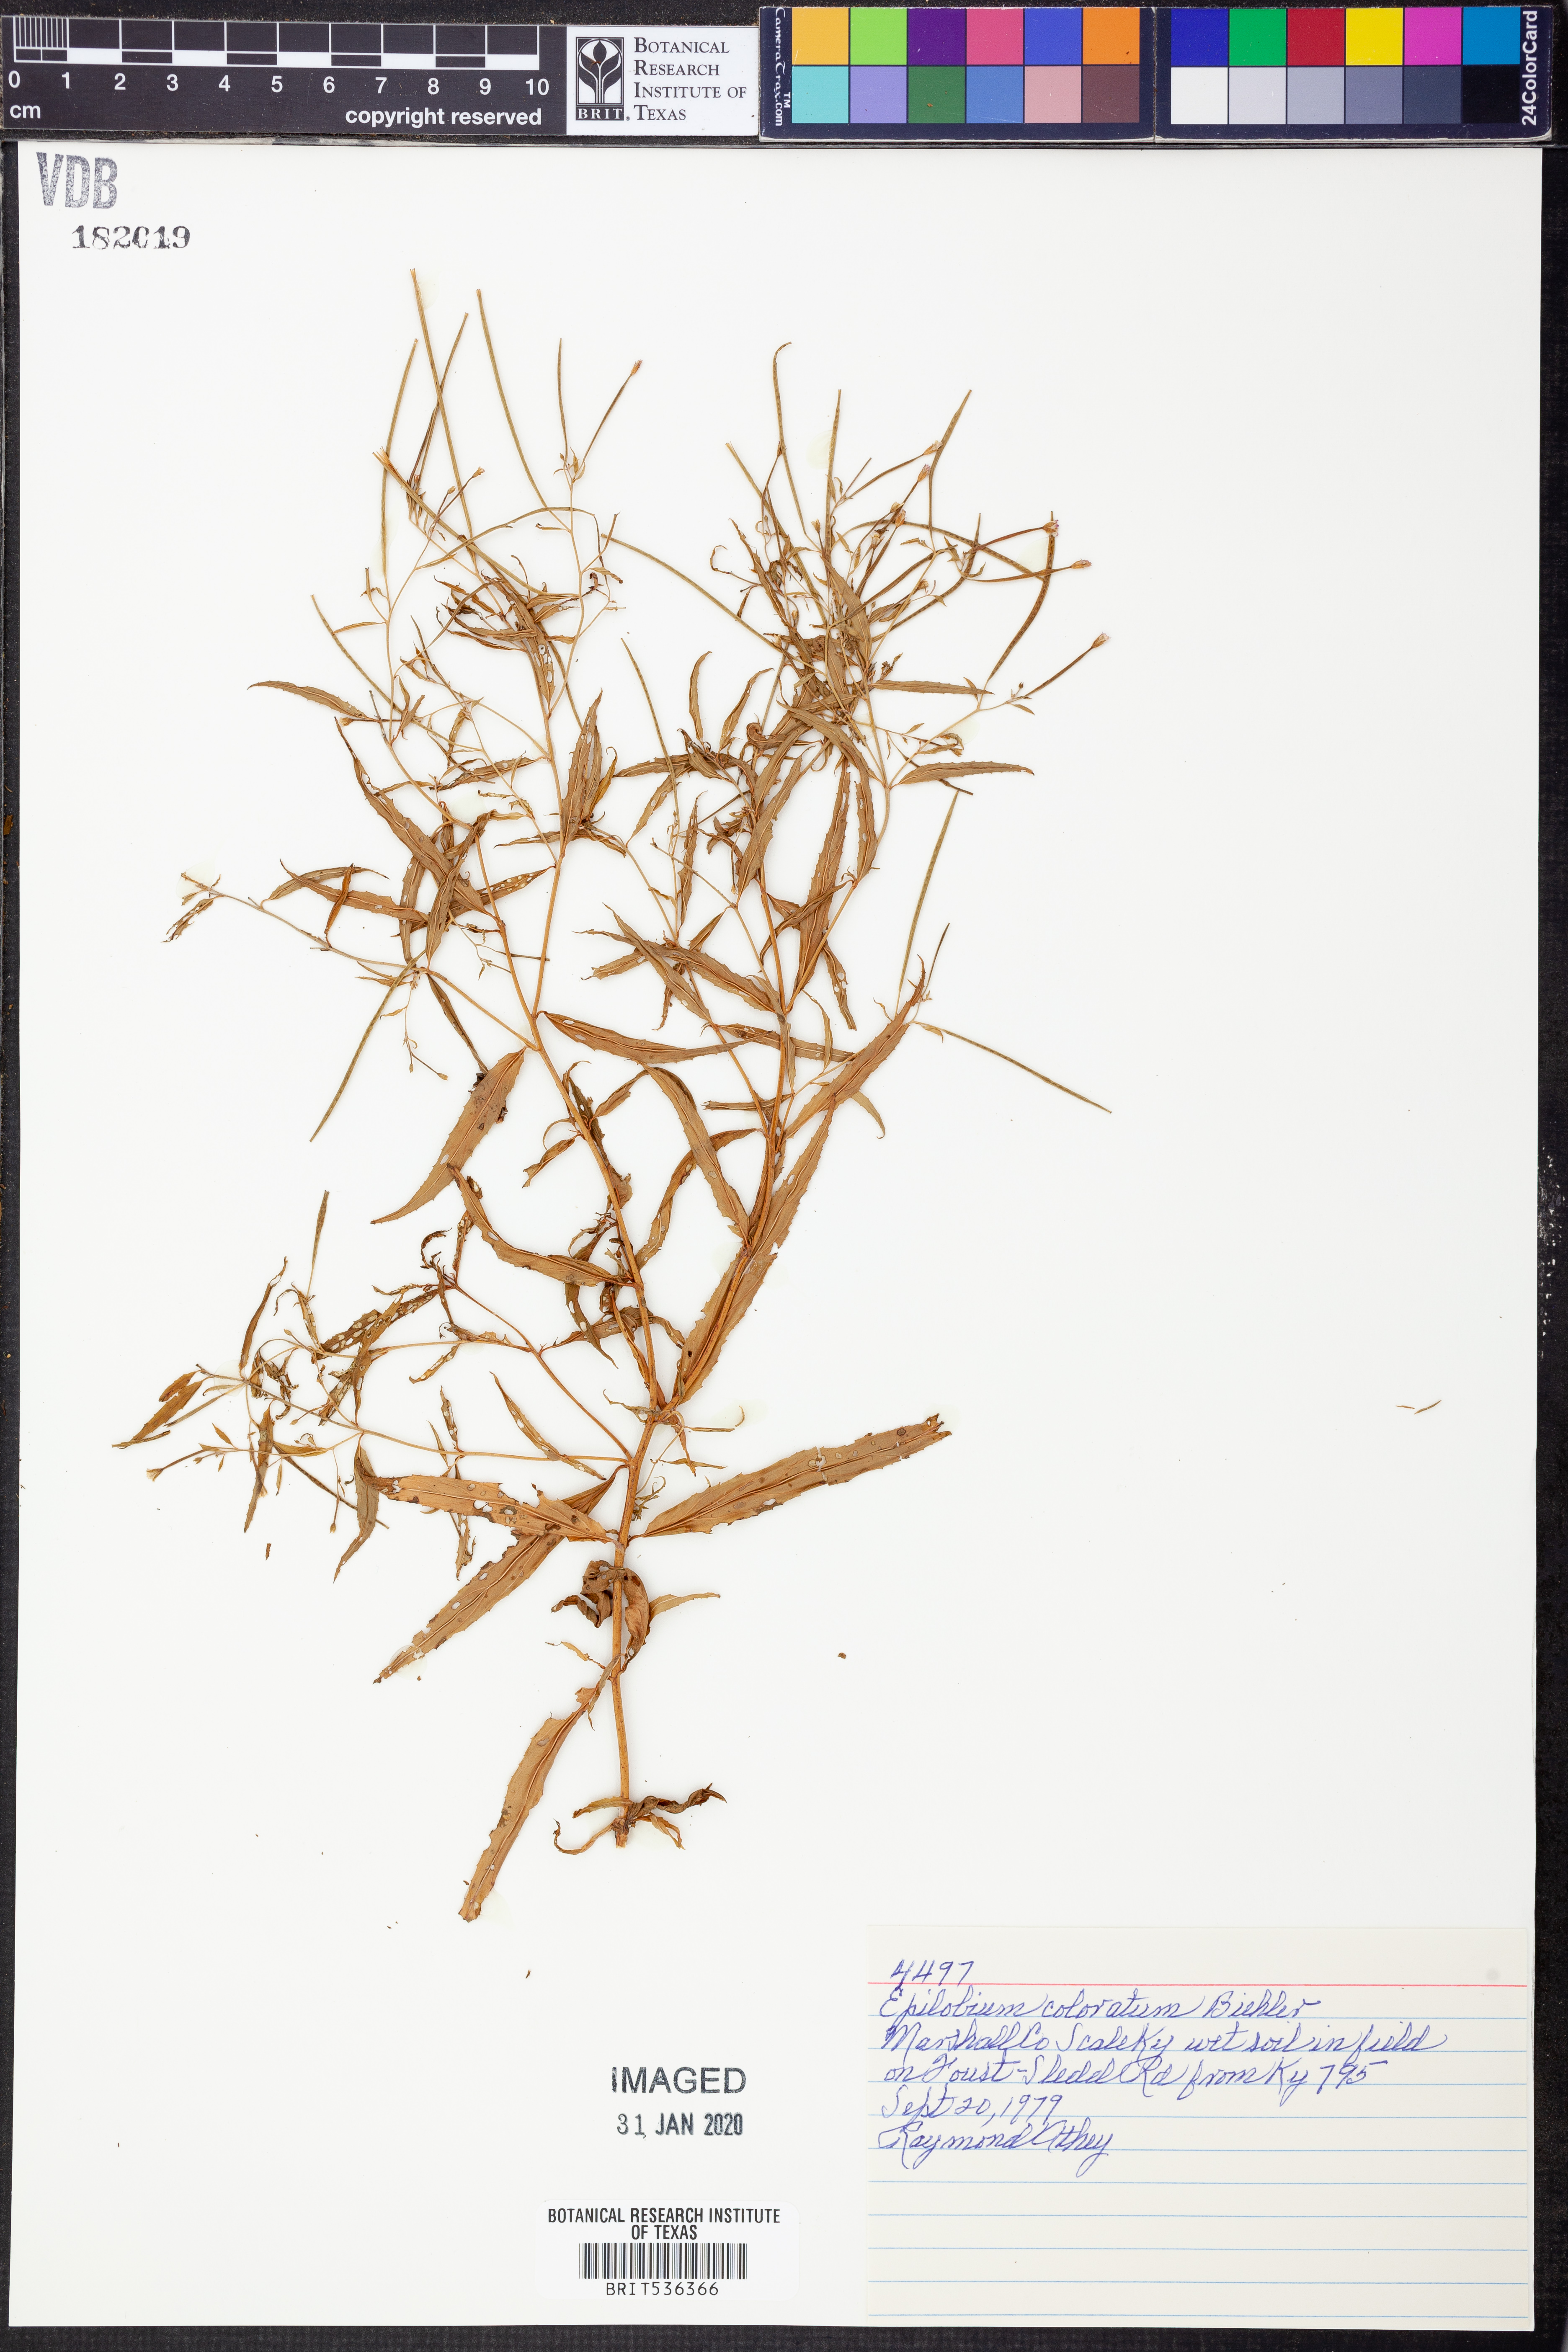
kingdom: Plantae
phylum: Tracheophyta
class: Magnoliopsida
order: Myrtales
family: Onagraceae
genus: Epilobium
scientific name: Epilobium coloratum
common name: Bronze willowherb
